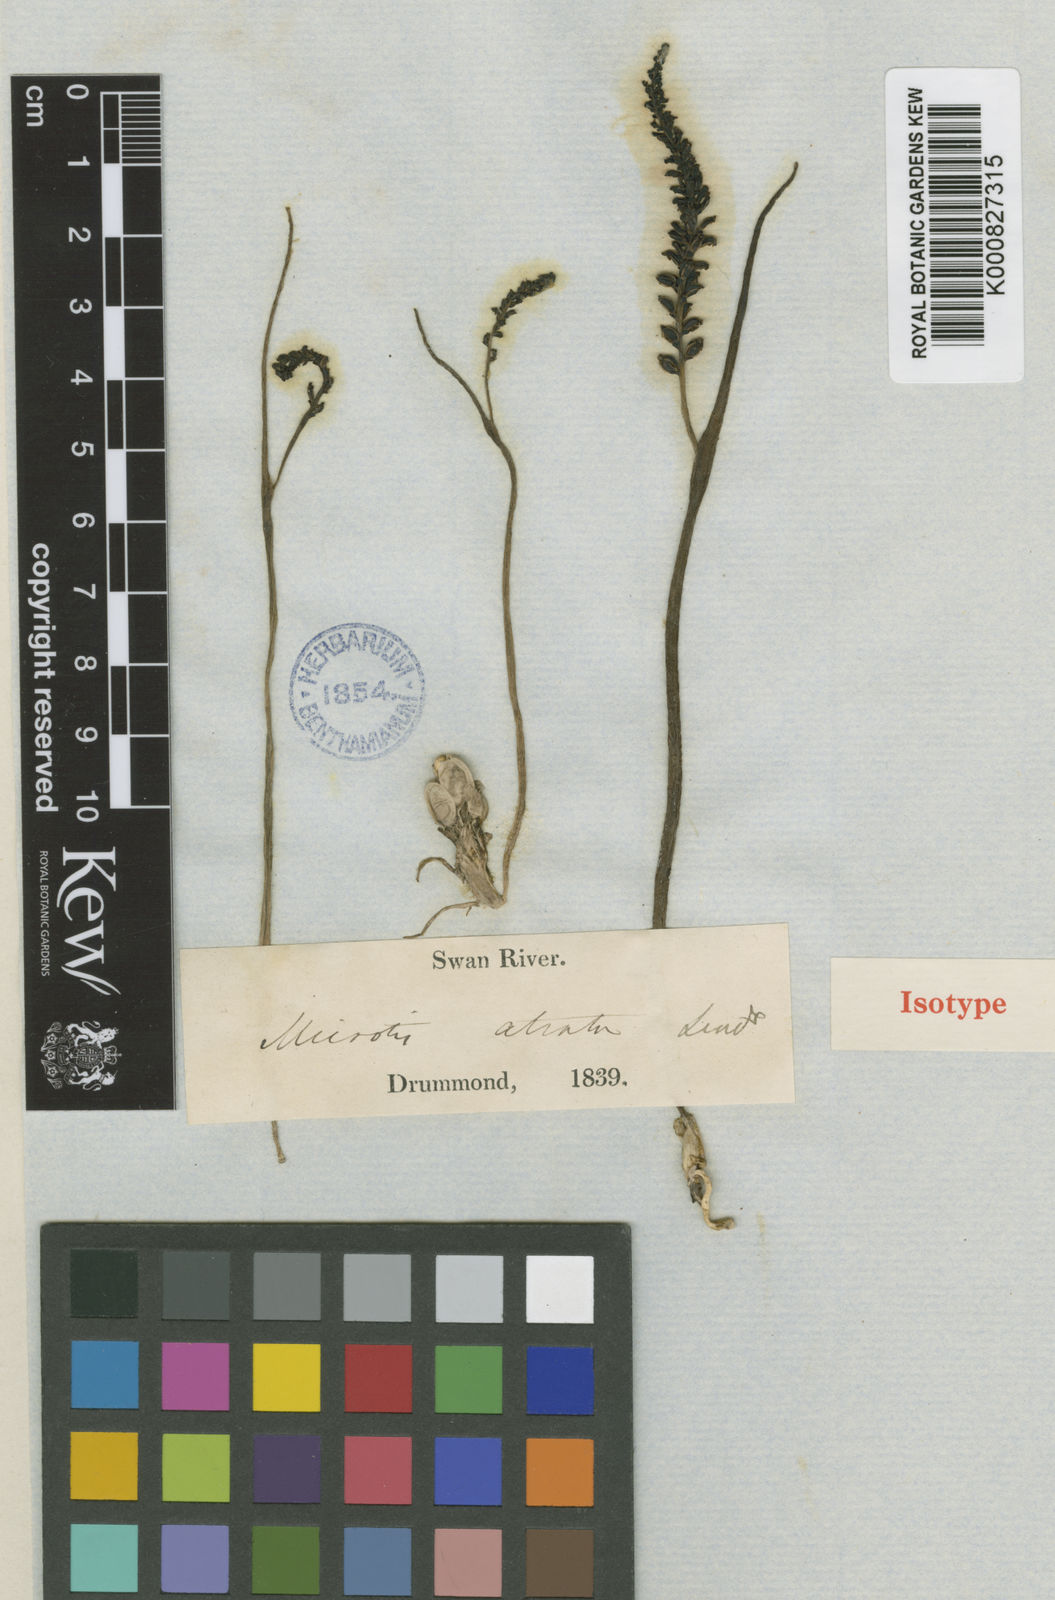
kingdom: Plantae
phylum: Tracheophyta
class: Liliopsida
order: Asparagales
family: Orchidaceae
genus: Microtis
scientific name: Microtis atrata
